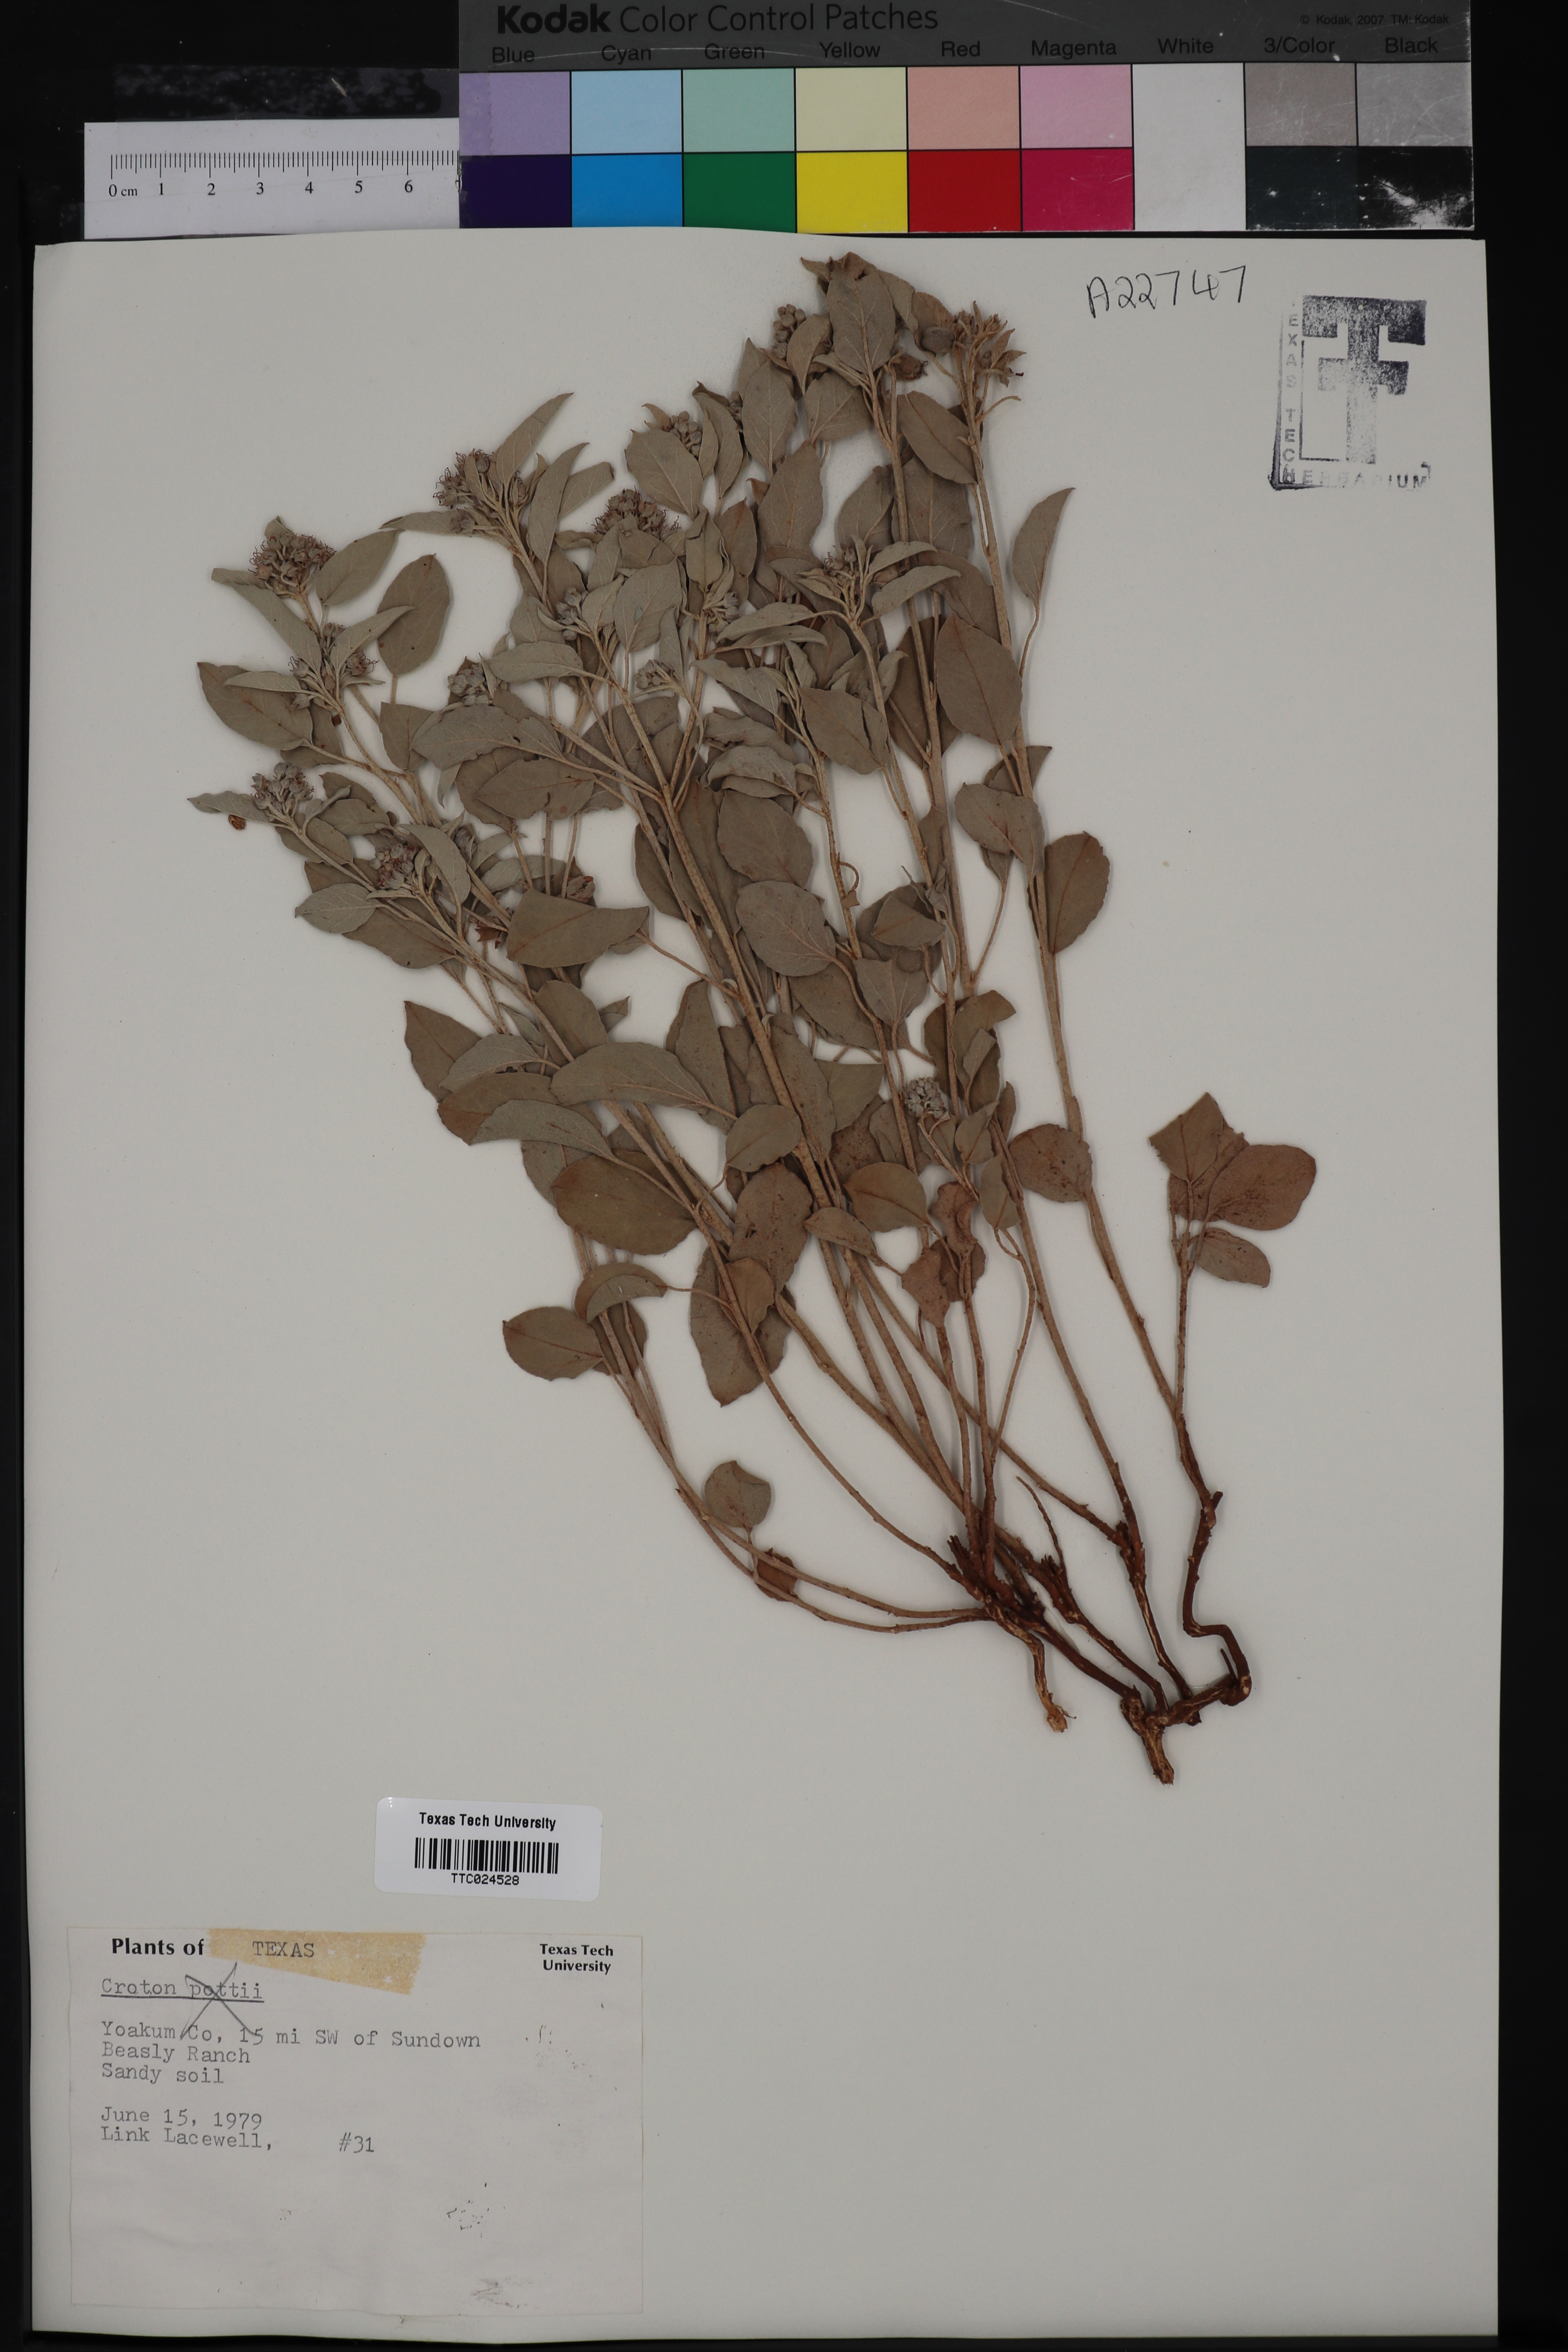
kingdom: Plantae
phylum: Tracheophyta
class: Magnoliopsida
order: Malpighiales
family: Euphorbiaceae
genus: Croton
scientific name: Croton pottsii
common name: Leatherweed
